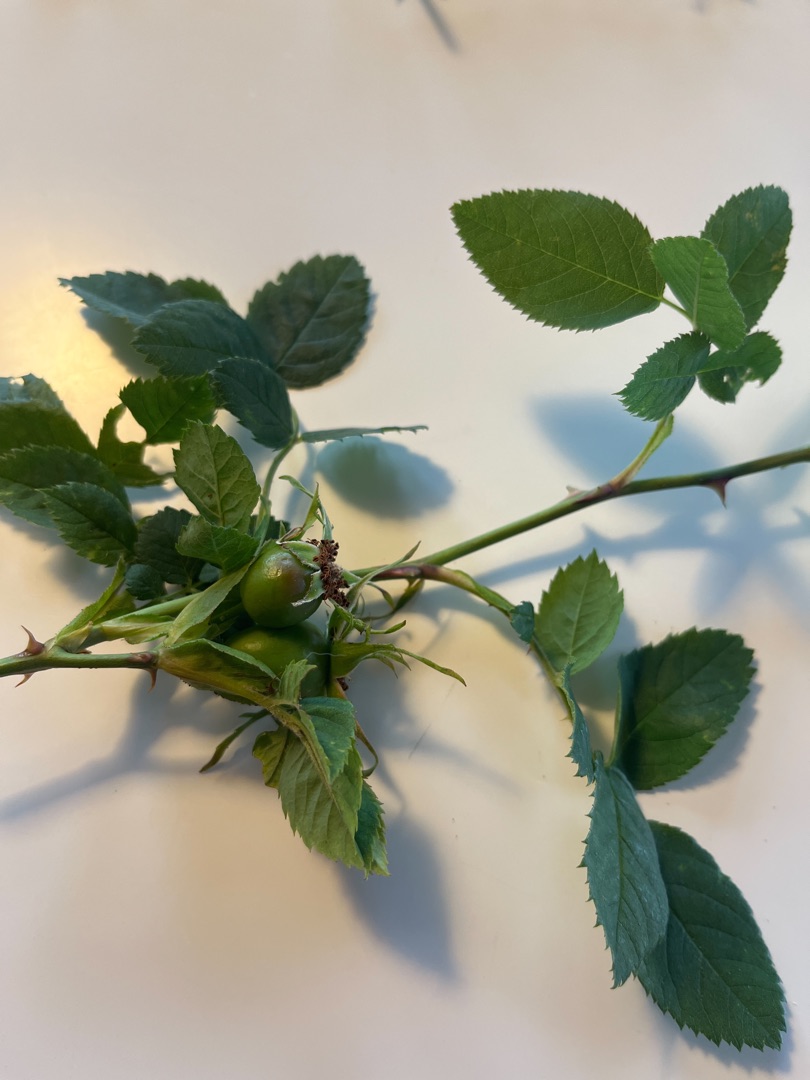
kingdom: Plantae
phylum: Tracheophyta
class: Magnoliopsida
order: Rosales
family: Rosaceae
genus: Rosa
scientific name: Rosa
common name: Roseslægten
